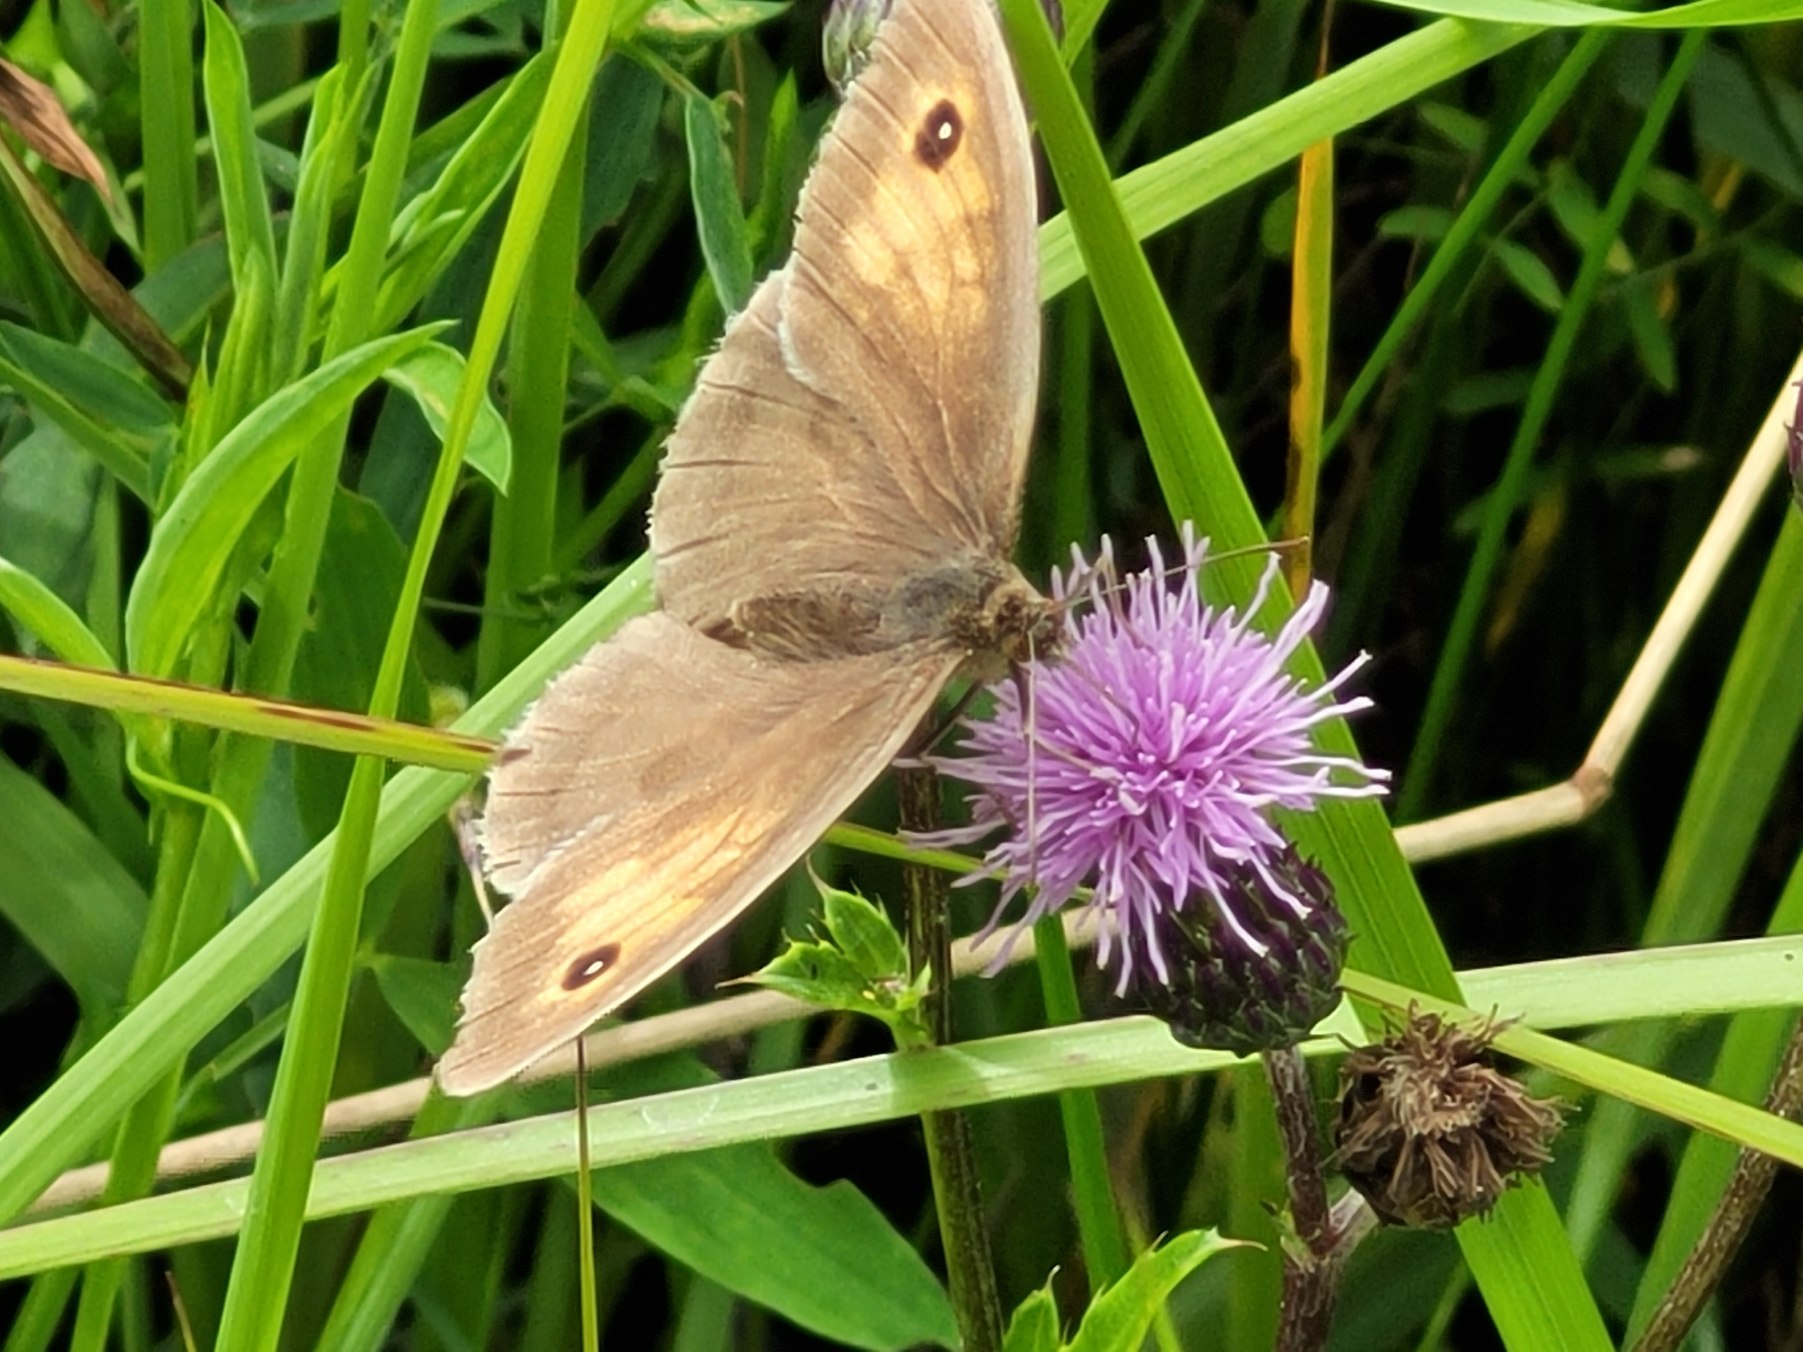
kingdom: Animalia
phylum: Arthropoda
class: Insecta
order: Lepidoptera
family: Nymphalidae
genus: Maniola
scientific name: Maniola jurtina
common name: Græsrandøje
